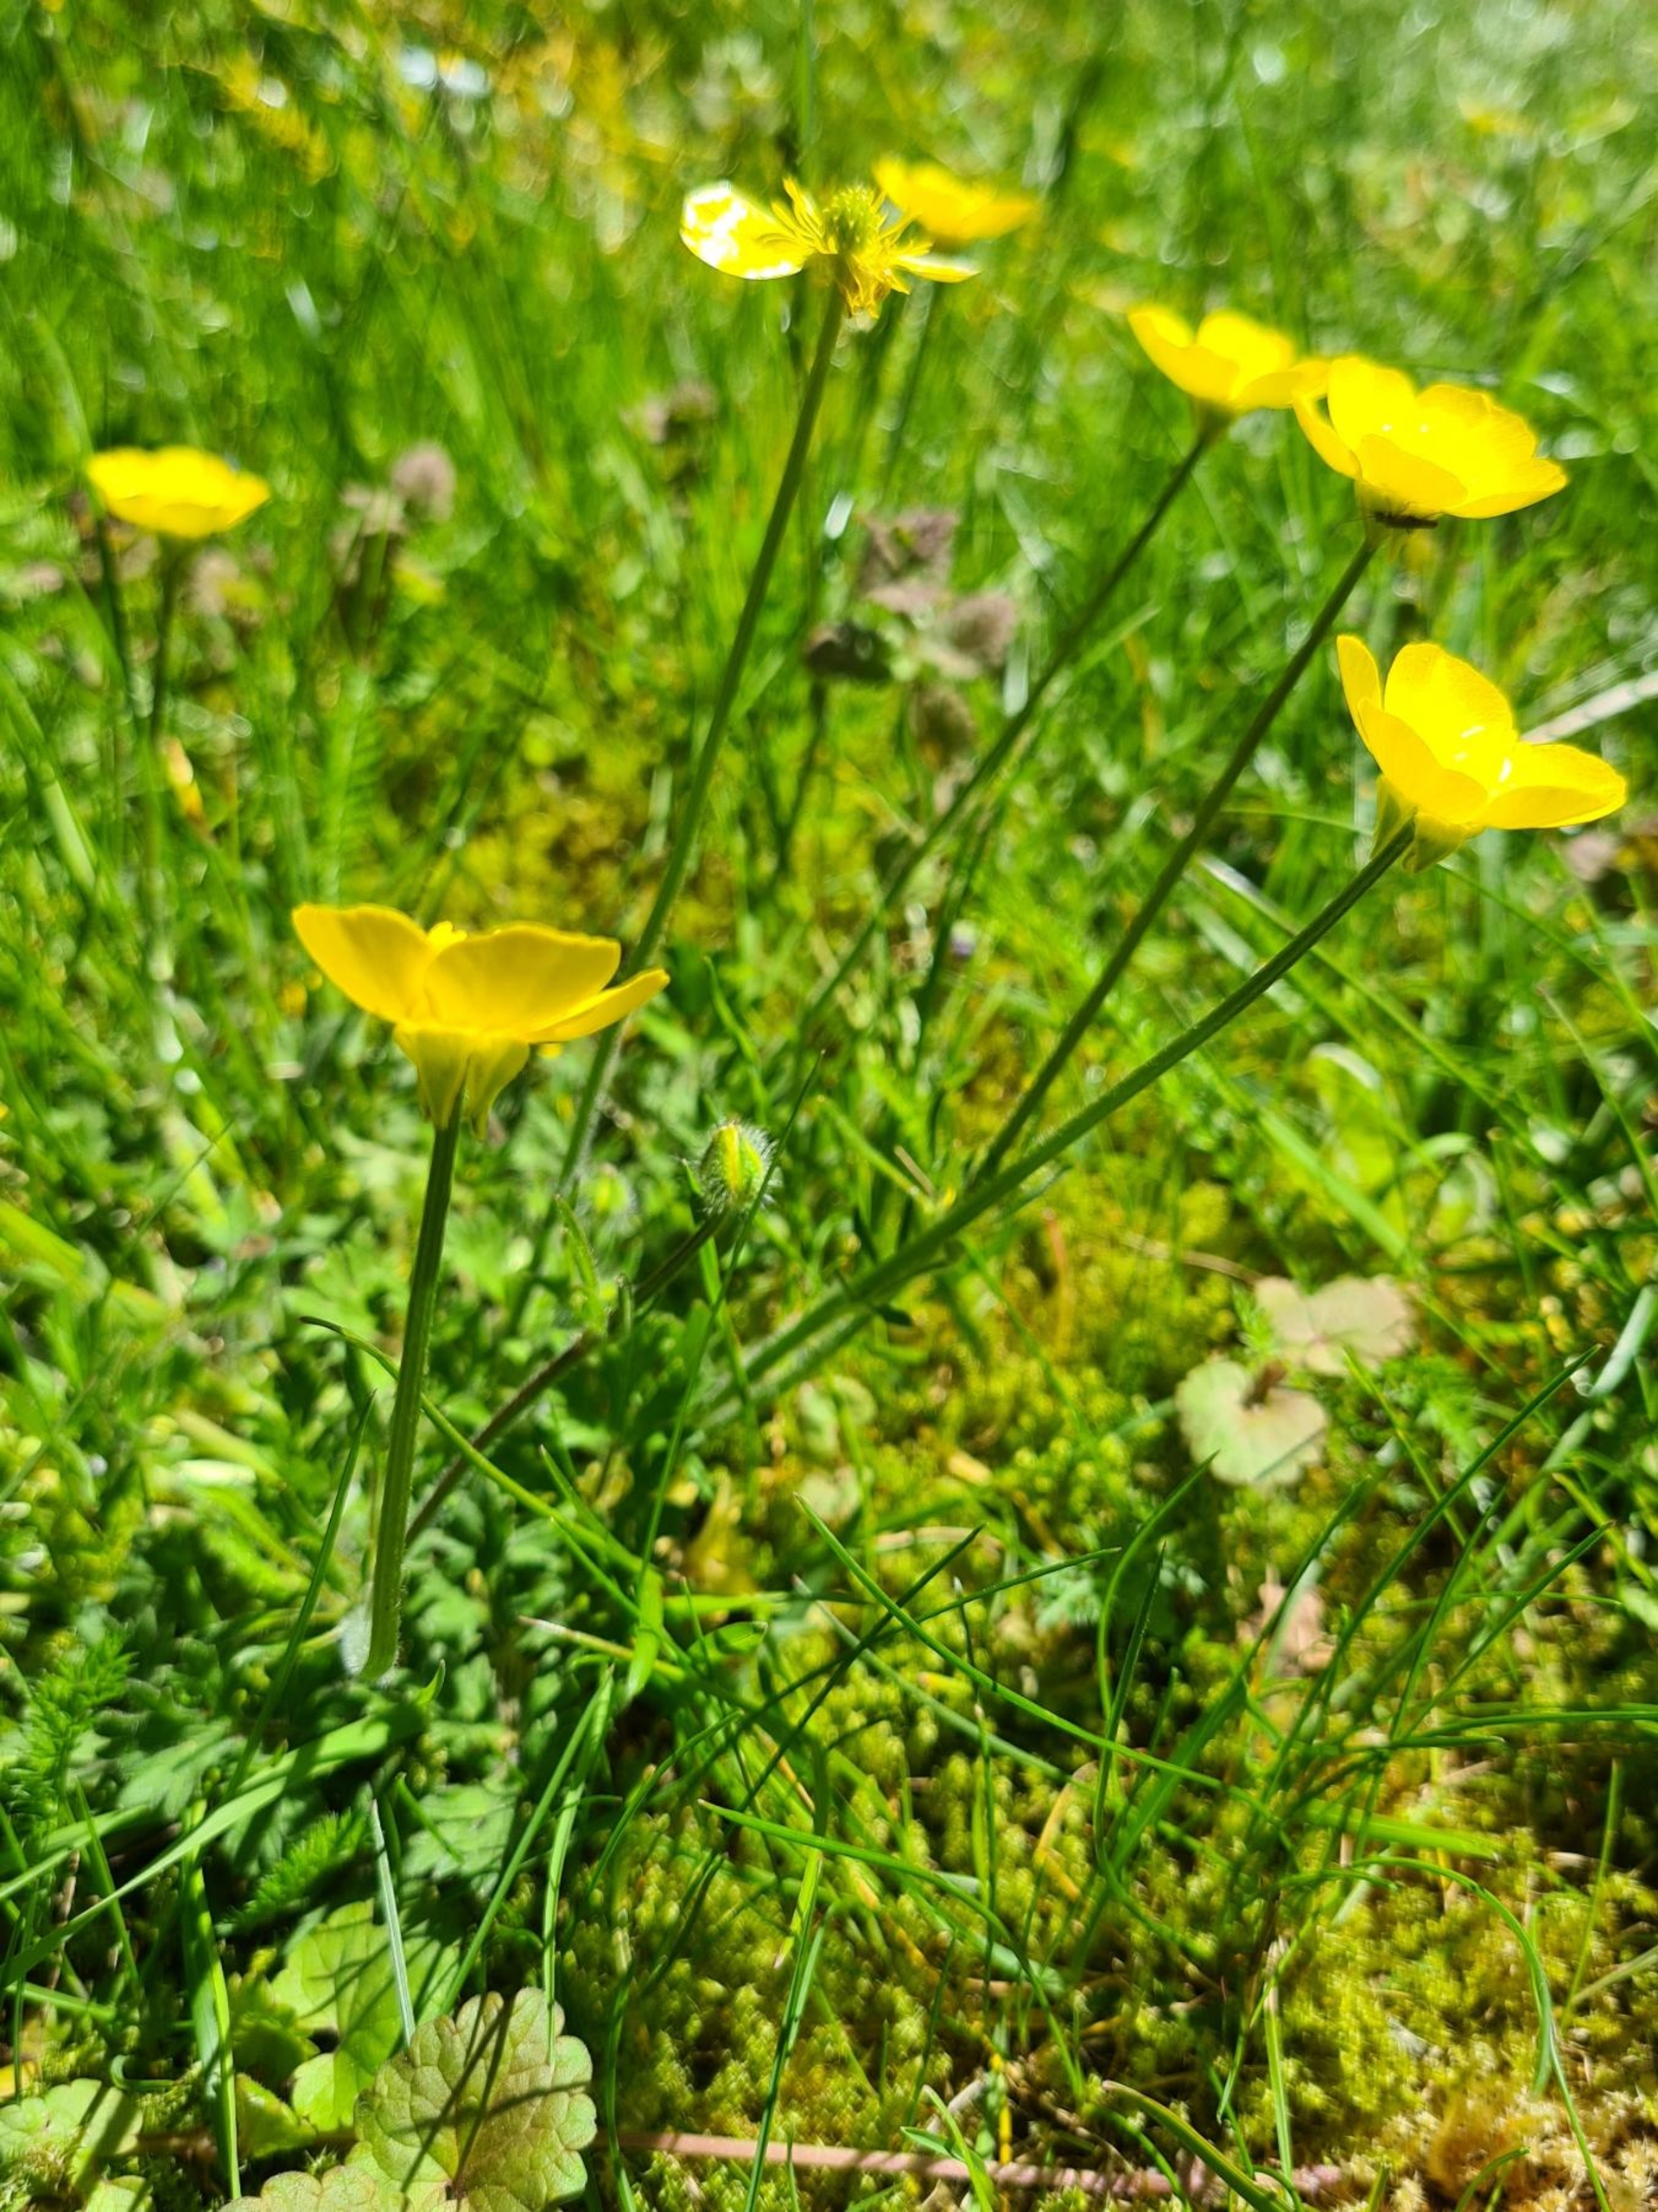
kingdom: Plantae
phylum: Tracheophyta
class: Magnoliopsida
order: Ranunculales
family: Ranunculaceae
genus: Ranunculus
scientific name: Ranunculus bulbosus
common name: Knold-ranunkel
